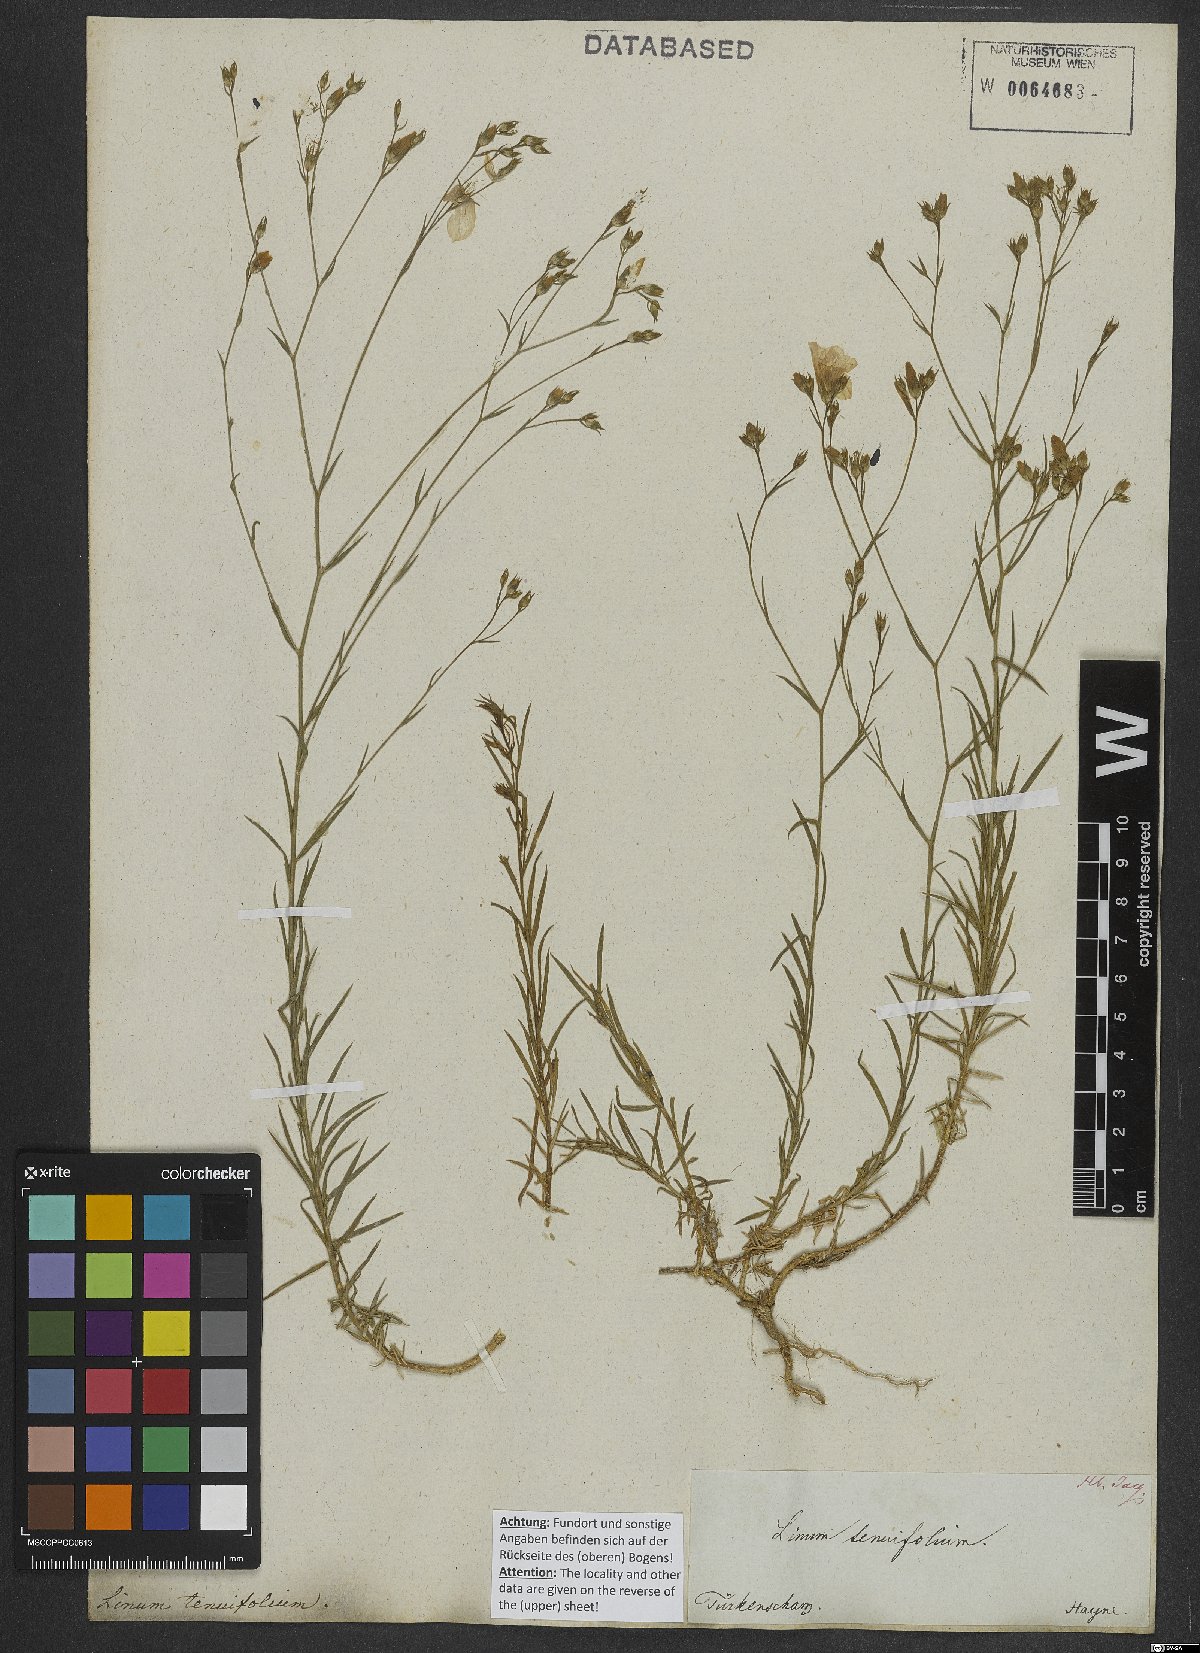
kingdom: Plantae
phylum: Tracheophyta
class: Magnoliopsida
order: Malpighiales
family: Linaceae
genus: Linum
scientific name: Linum tenuifolium
